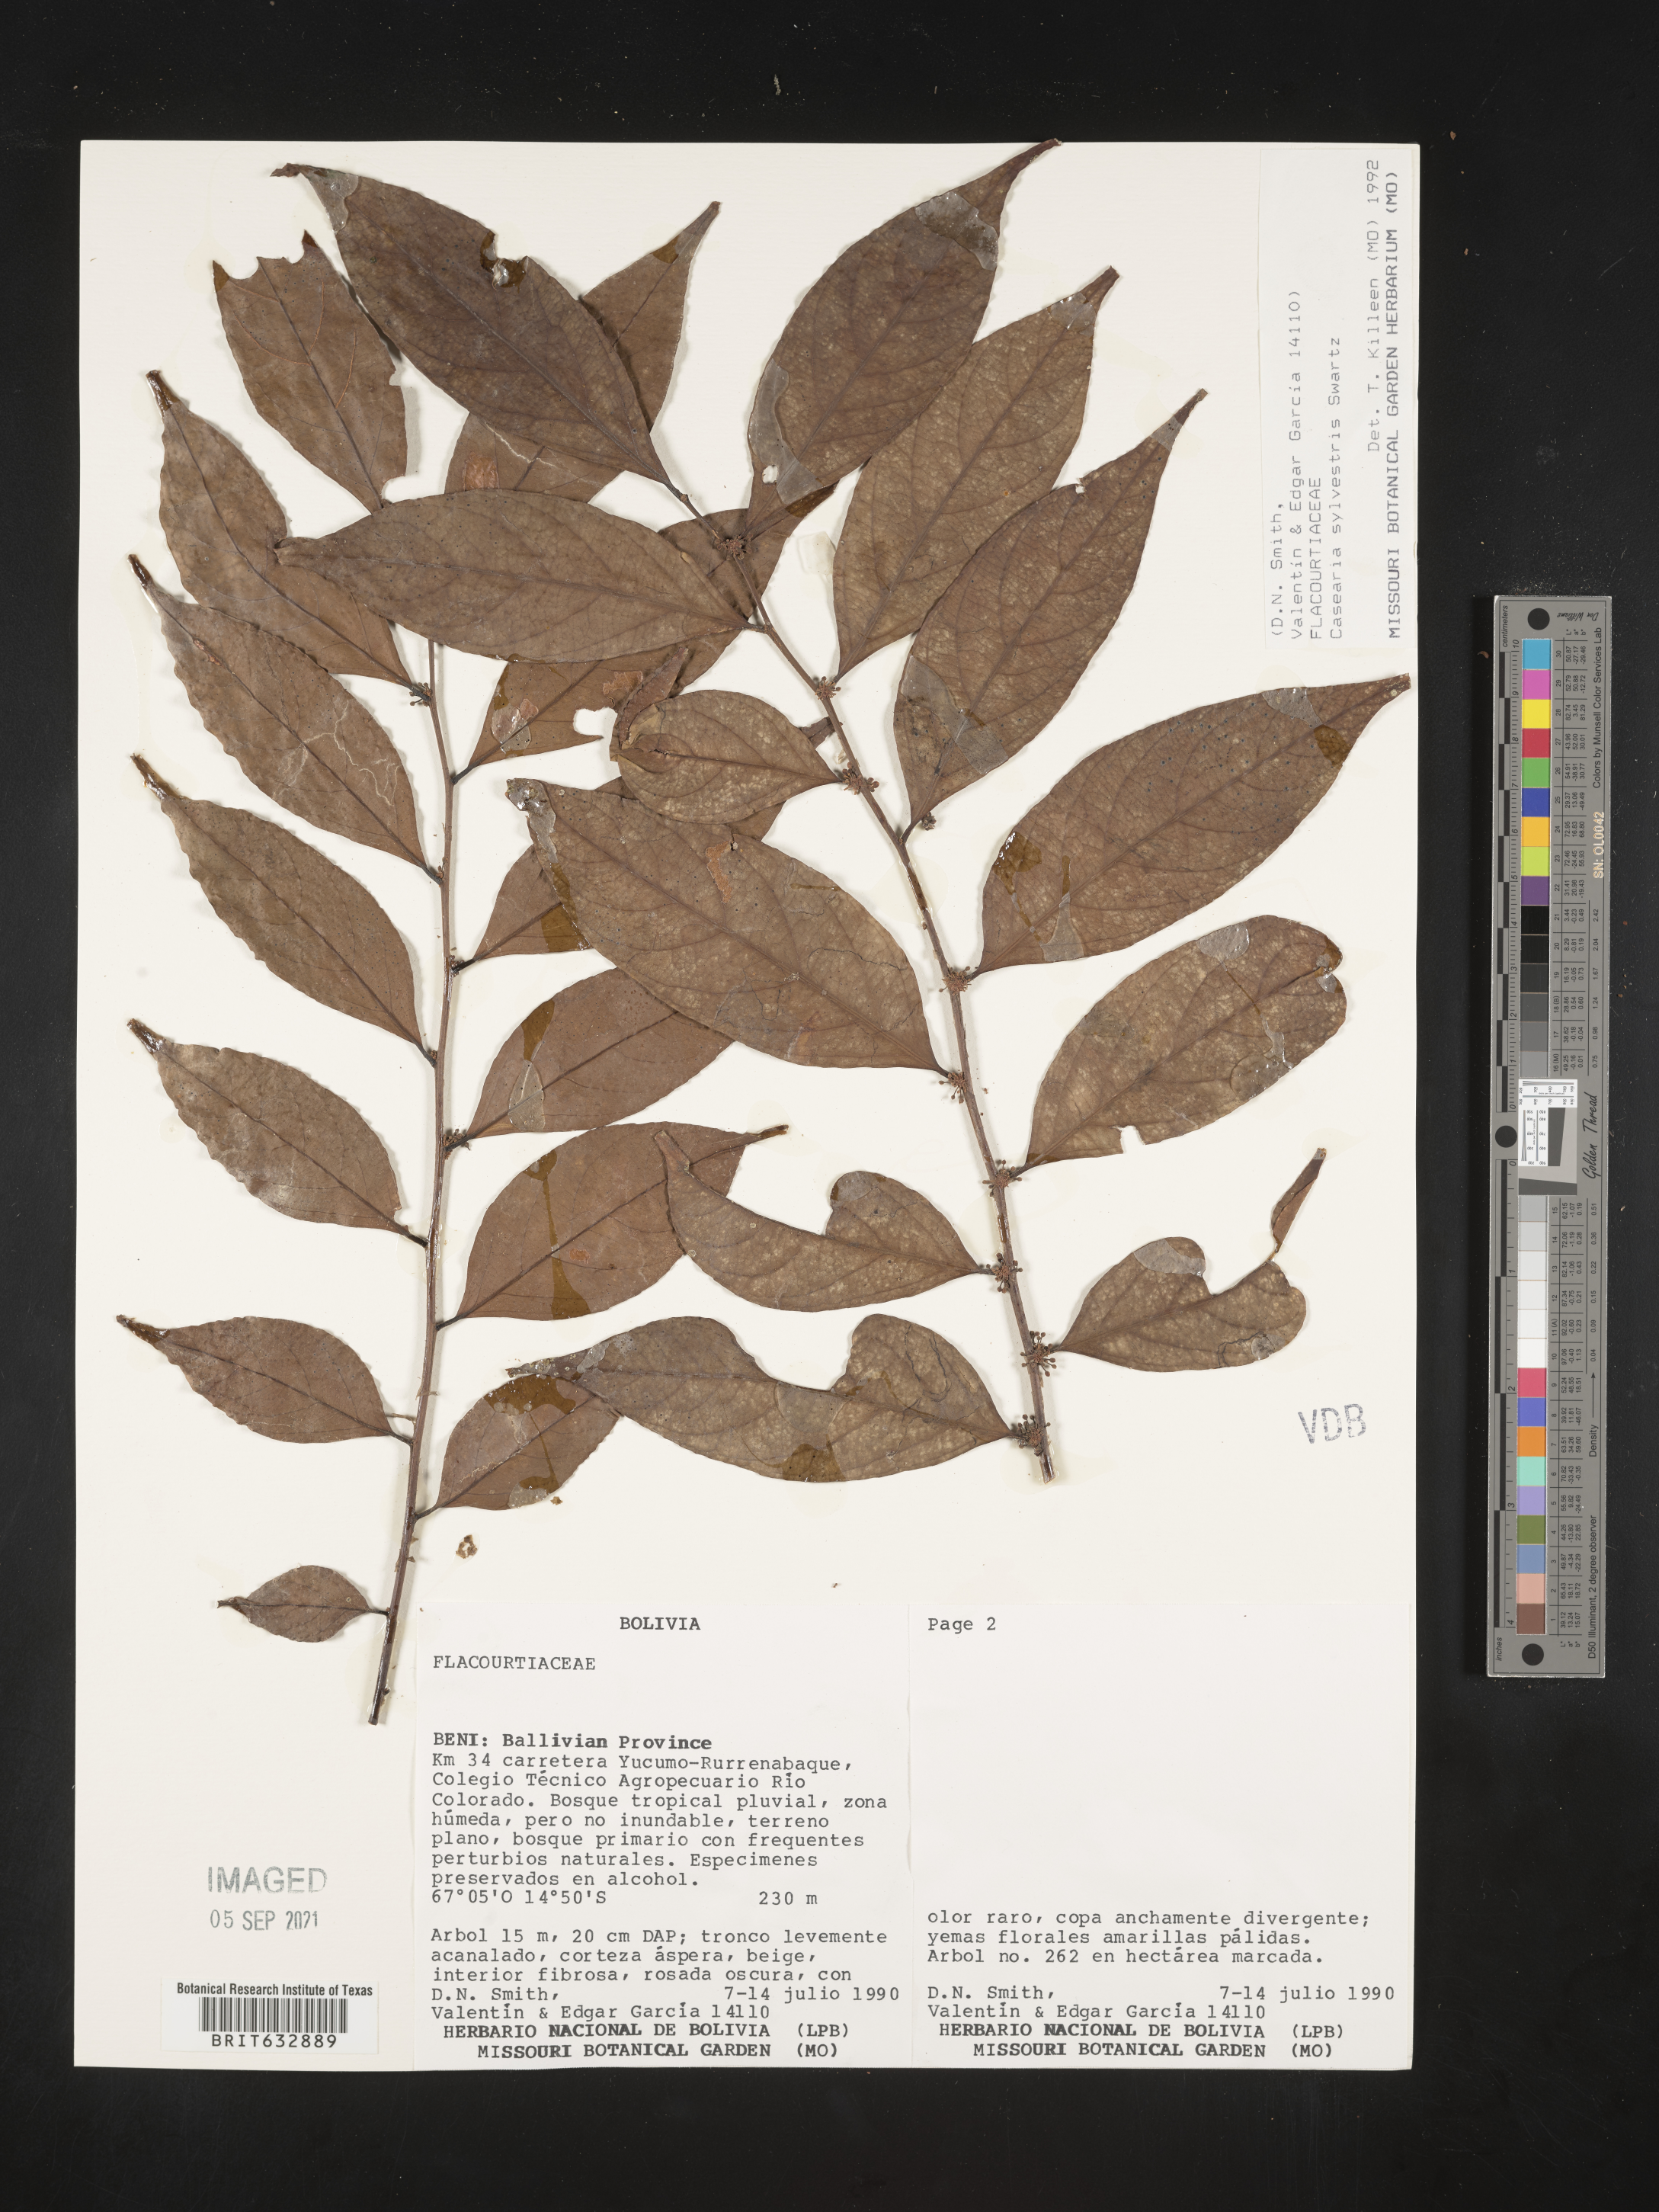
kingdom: Plantae
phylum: Tracheophyta
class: Magnoliopsida
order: Malpighiales
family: Salicaceae
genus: Casearia
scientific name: Casearia
